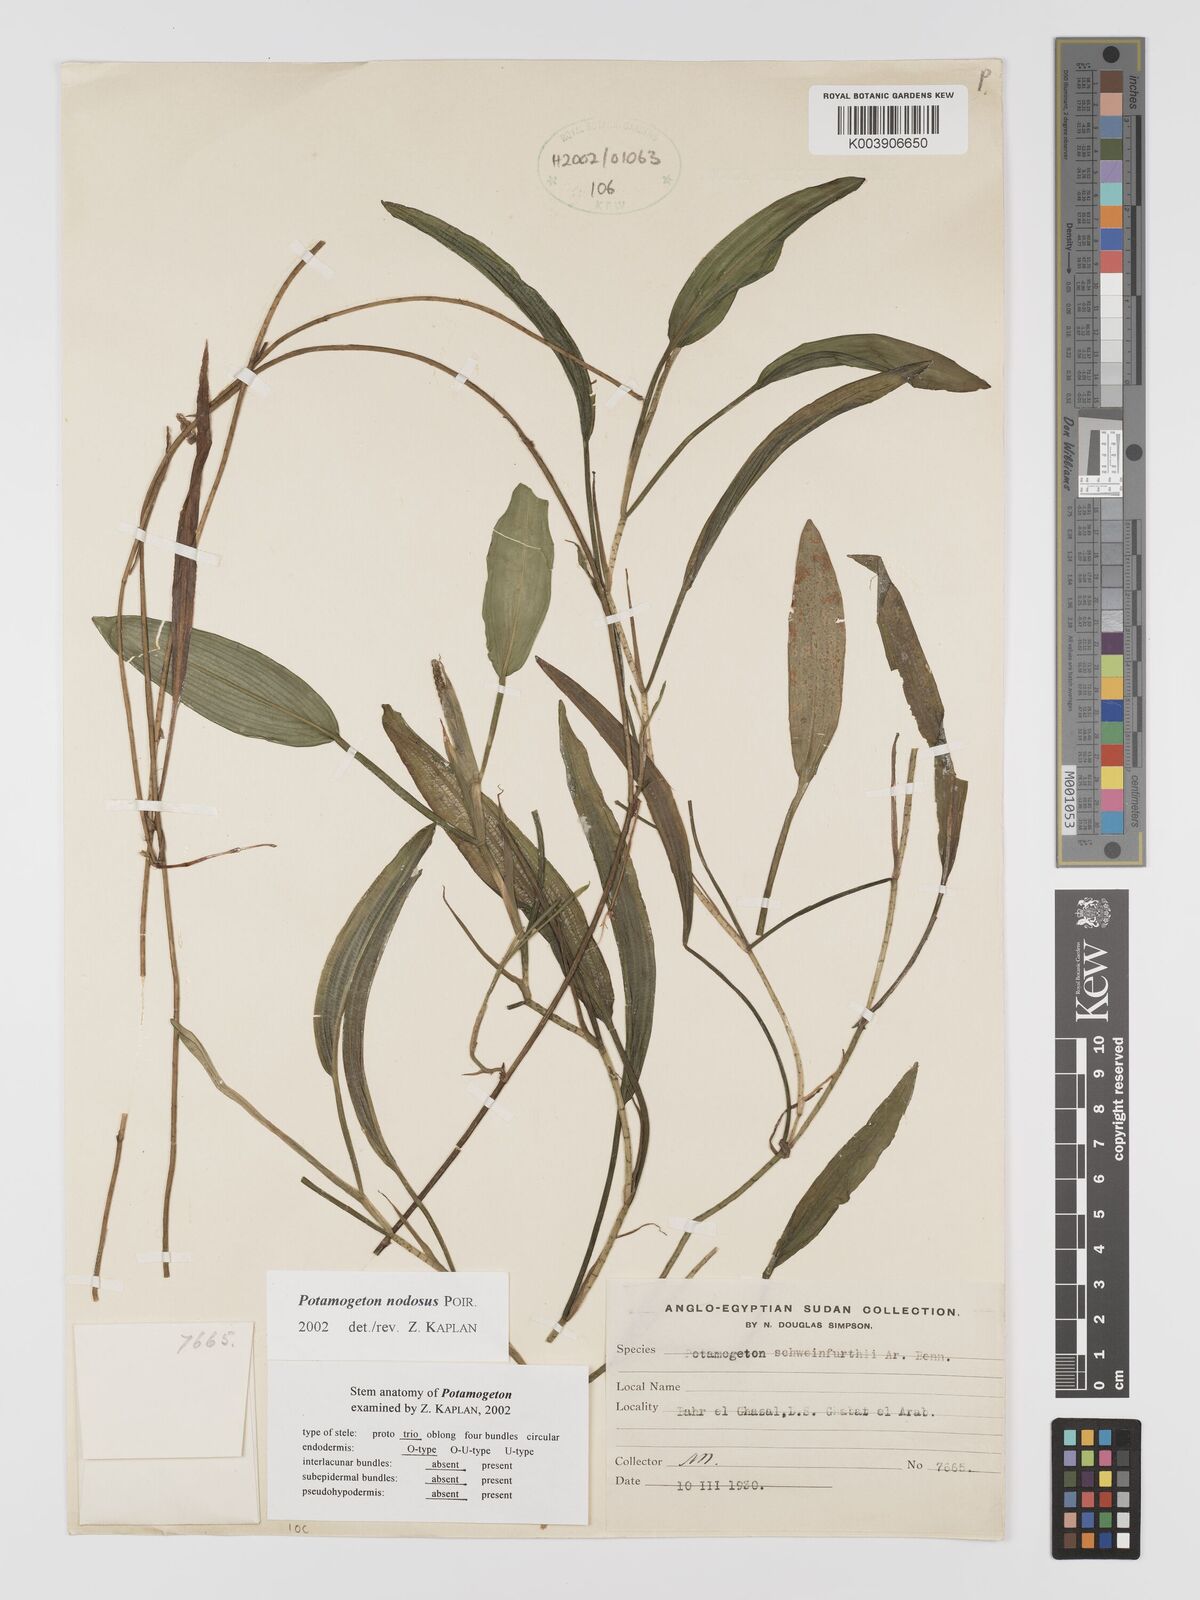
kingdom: Plantae
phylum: Tracheophyta
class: Liliopsida
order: Alismatales
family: Potamogetonaceae
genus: Potamogeton
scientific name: Potamogeton nodosus
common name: Loddon pondweed
